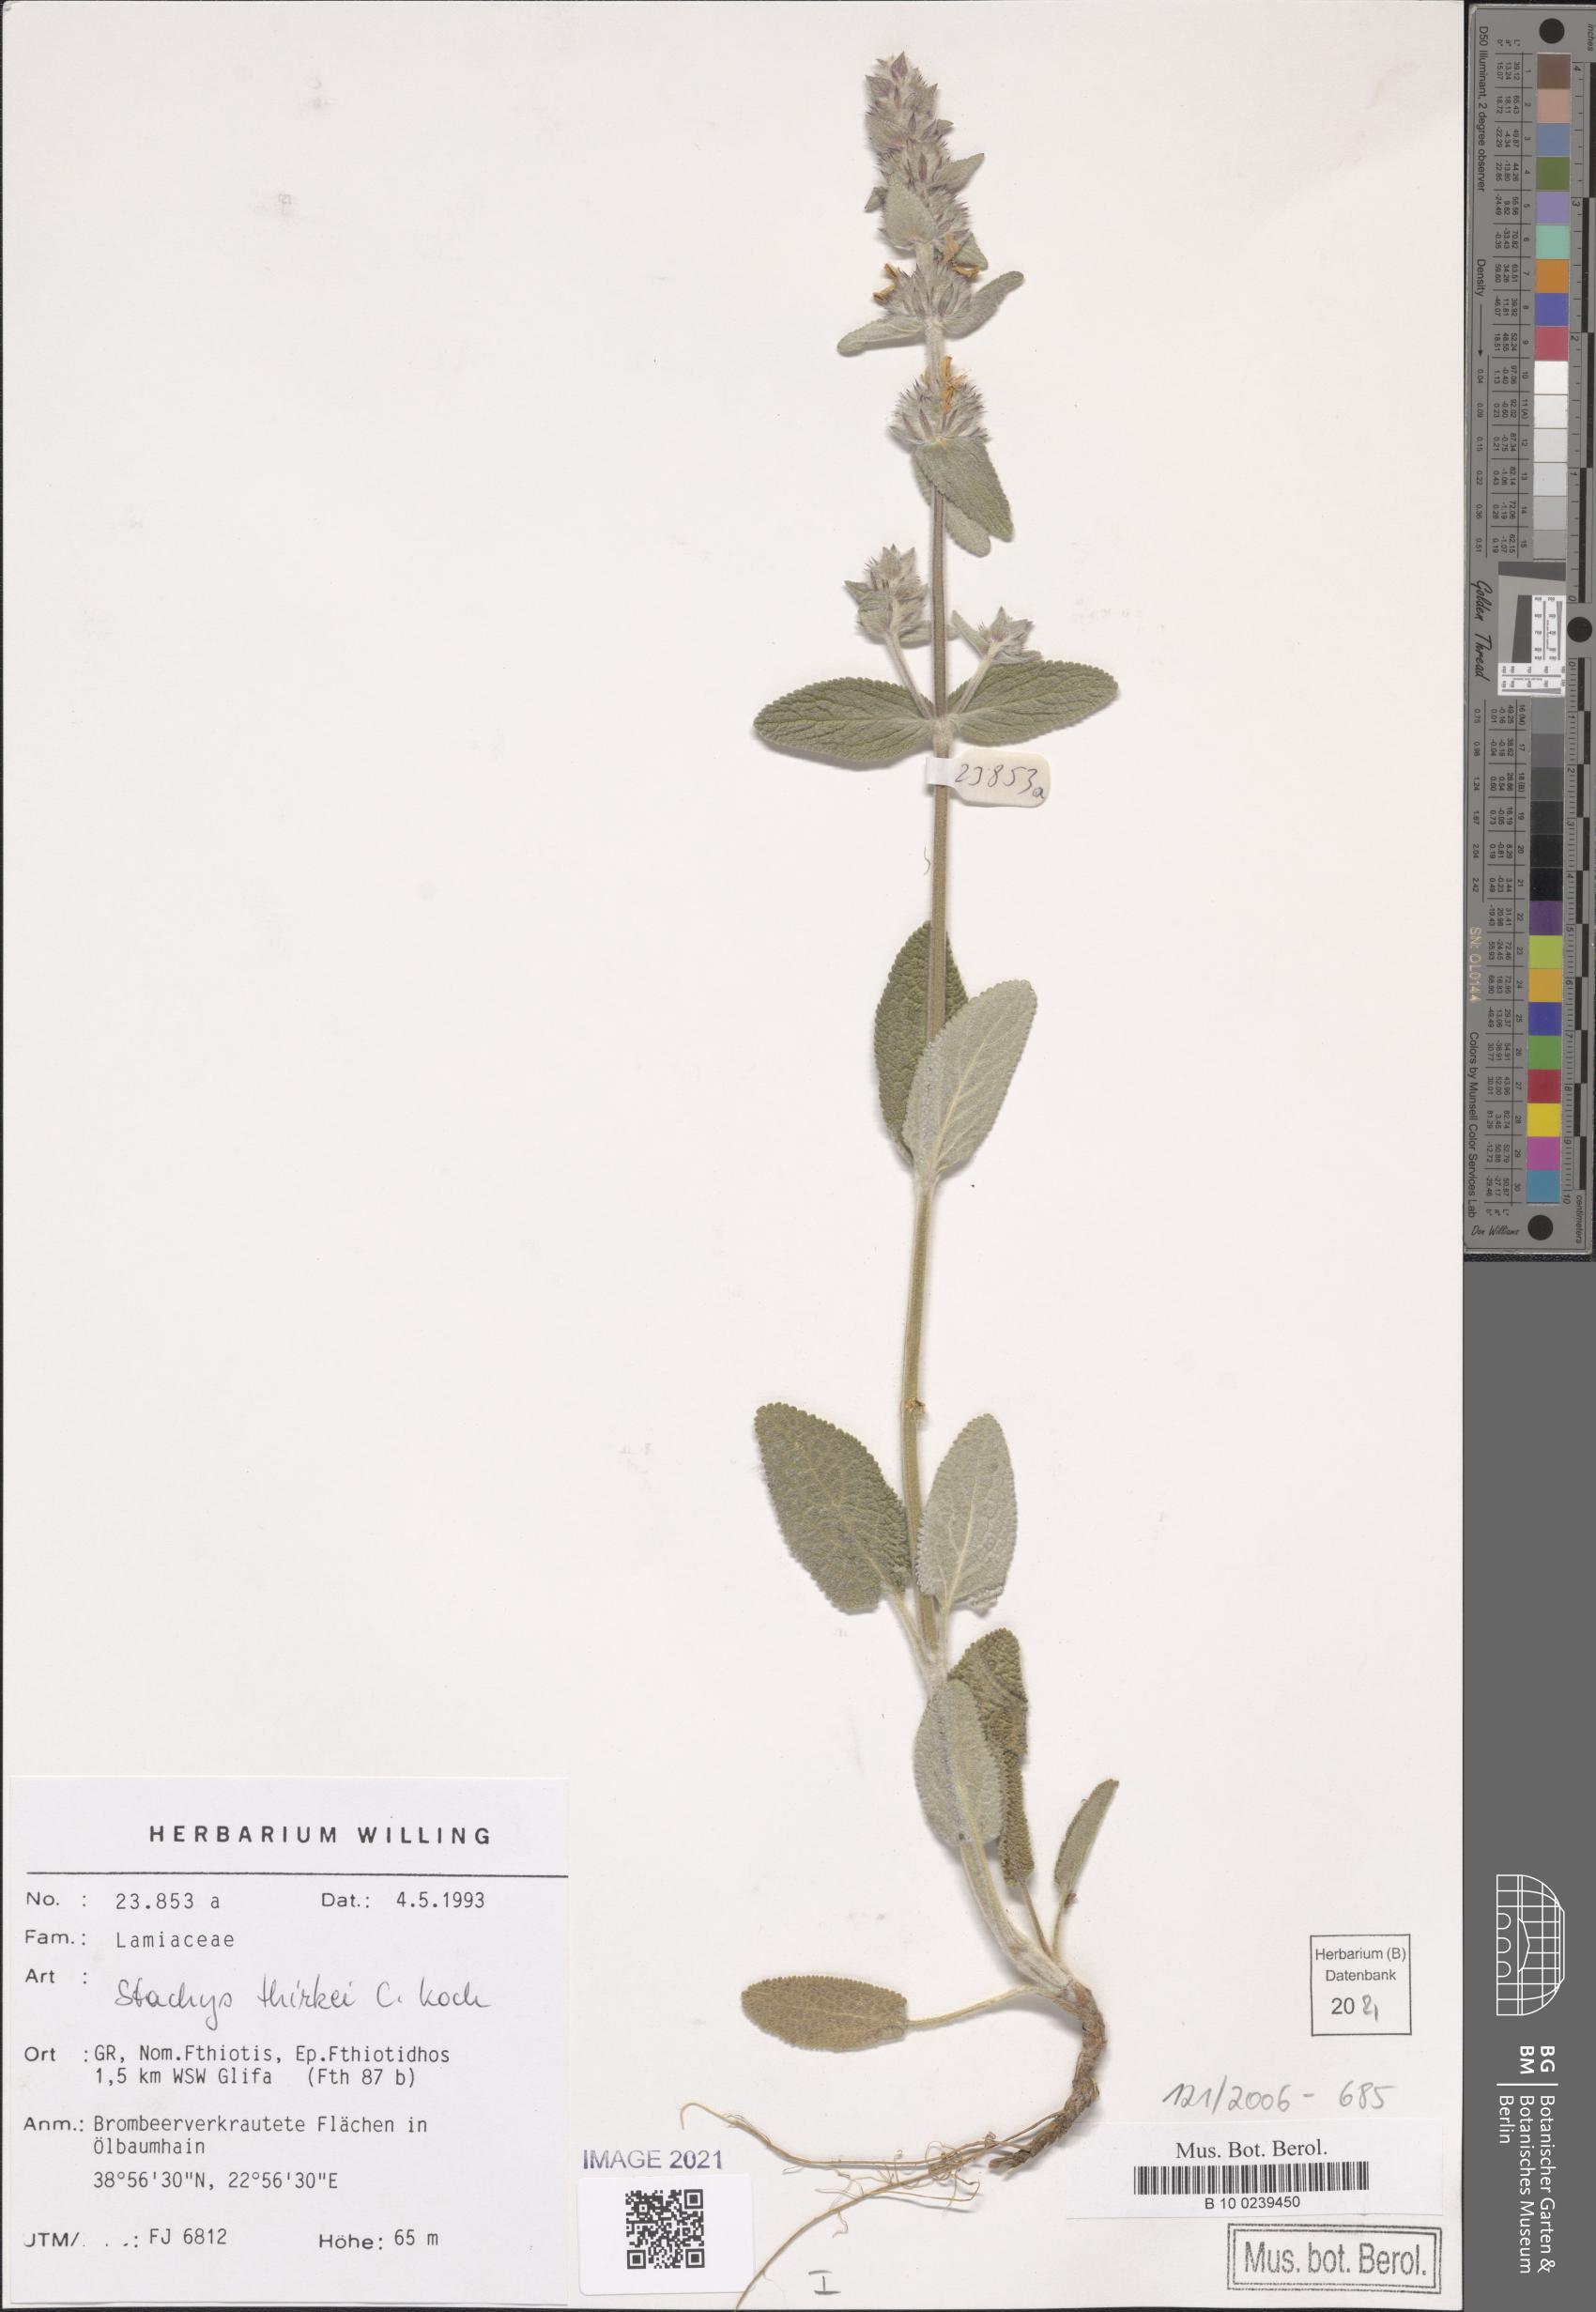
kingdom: Plantae
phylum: Tracheophyta
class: Magnoliopsida
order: Lamiales
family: Lamiaceae
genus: Stachys
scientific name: Stachys thirkei
